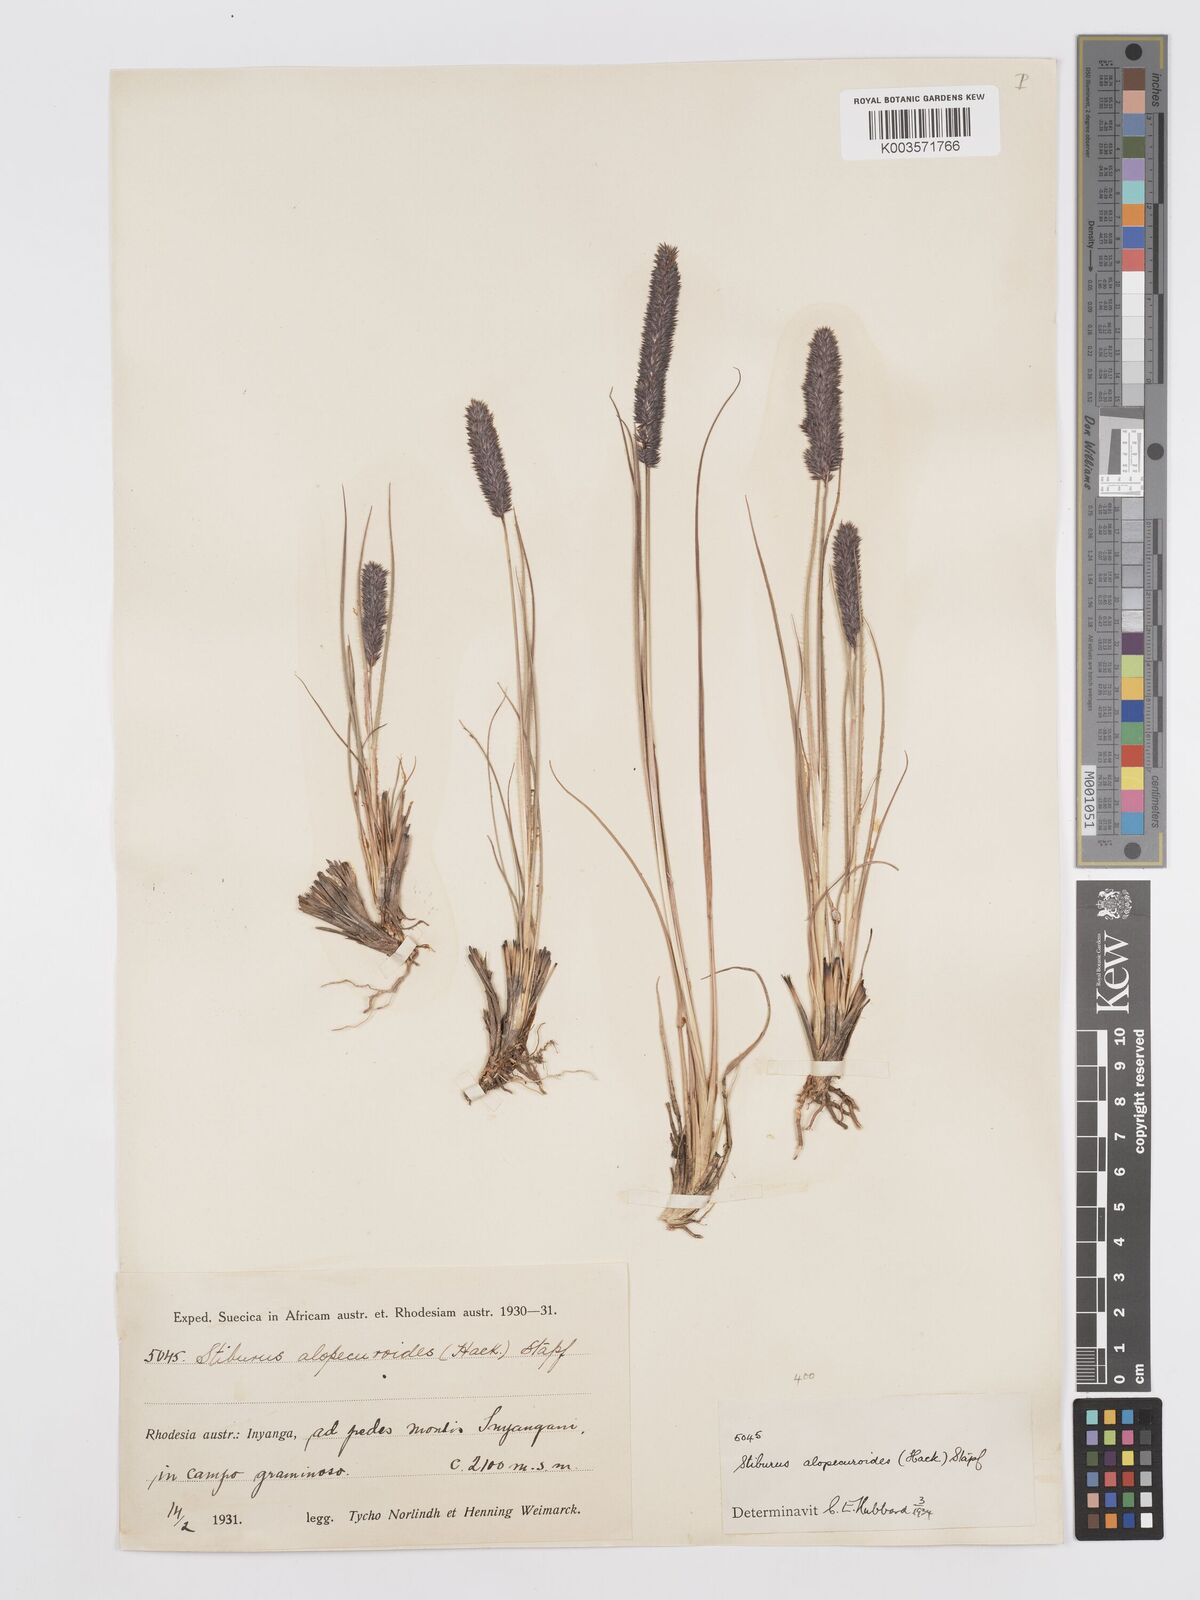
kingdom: Plantae
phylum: Tracheophyta
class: Liliopsida
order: Poales
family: Poaceae
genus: Stiburus
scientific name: Stiburus alopecuroides
